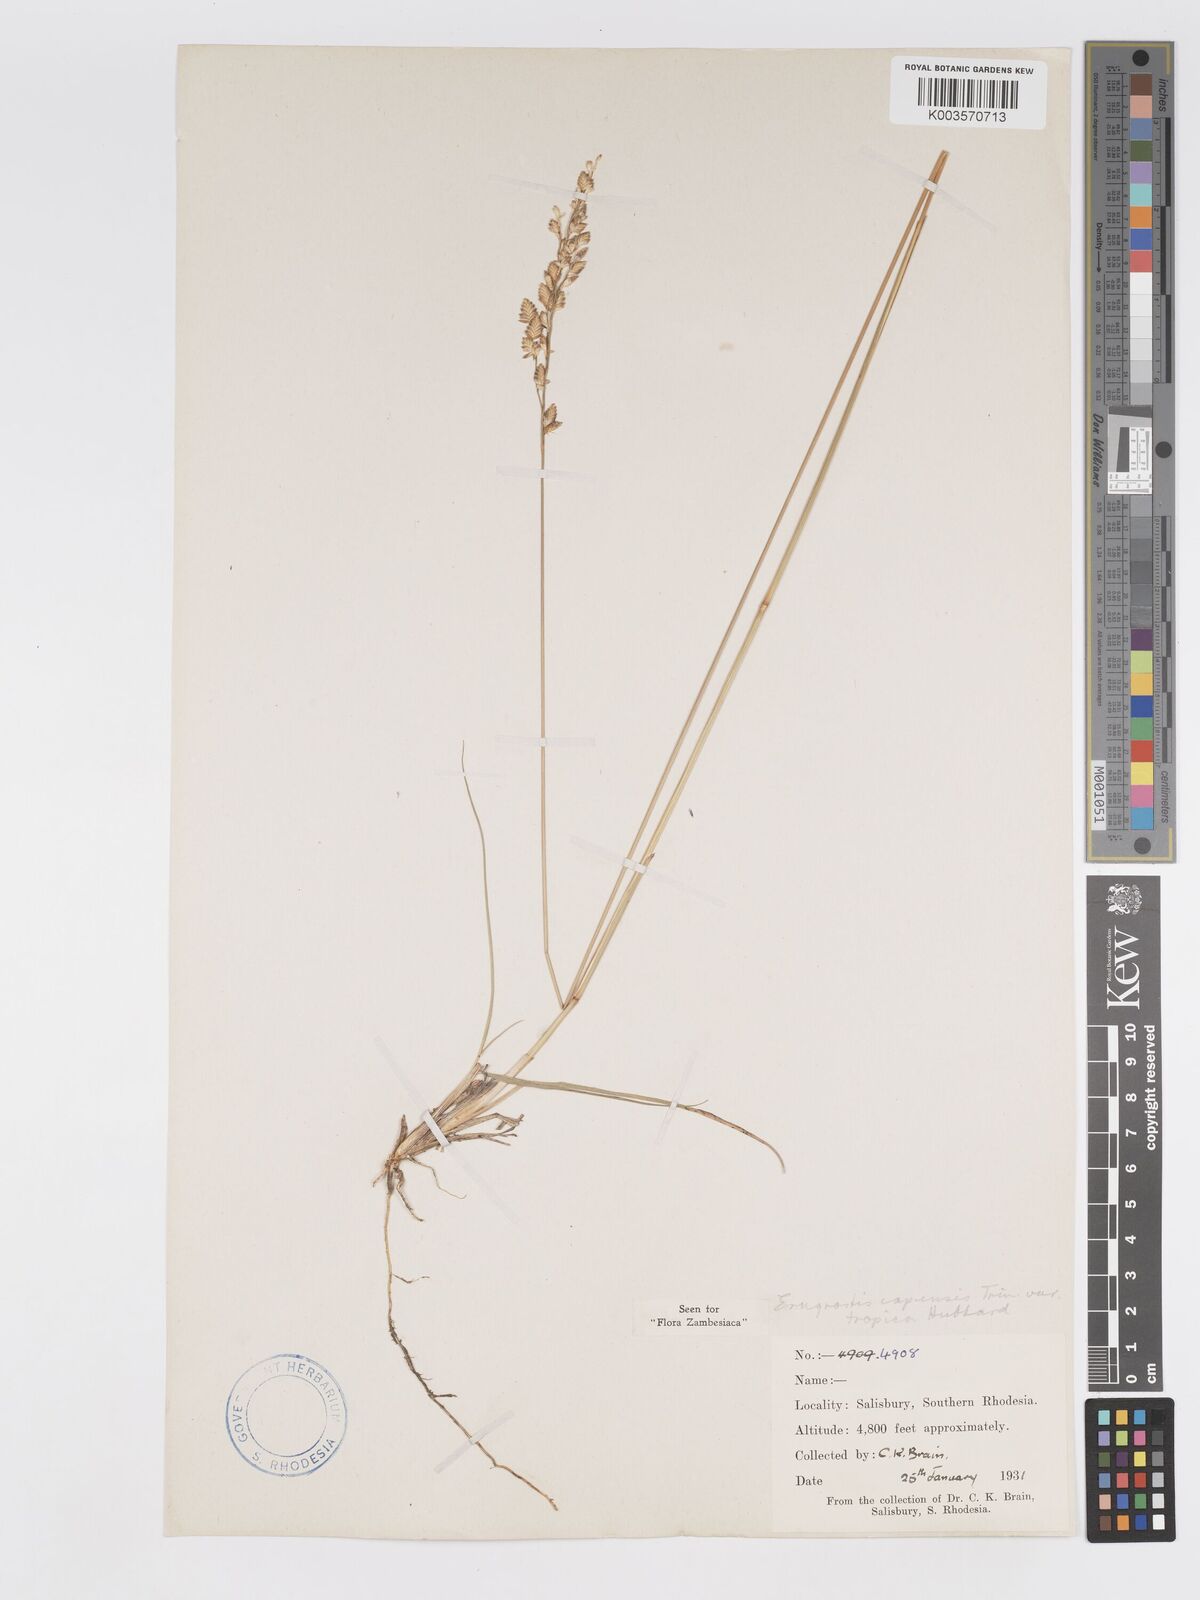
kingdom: Plantae
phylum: Tracheophyta
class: Liliopsida
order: Poales
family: Poaceae
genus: Eragrostis
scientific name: Eragrostis capensis
